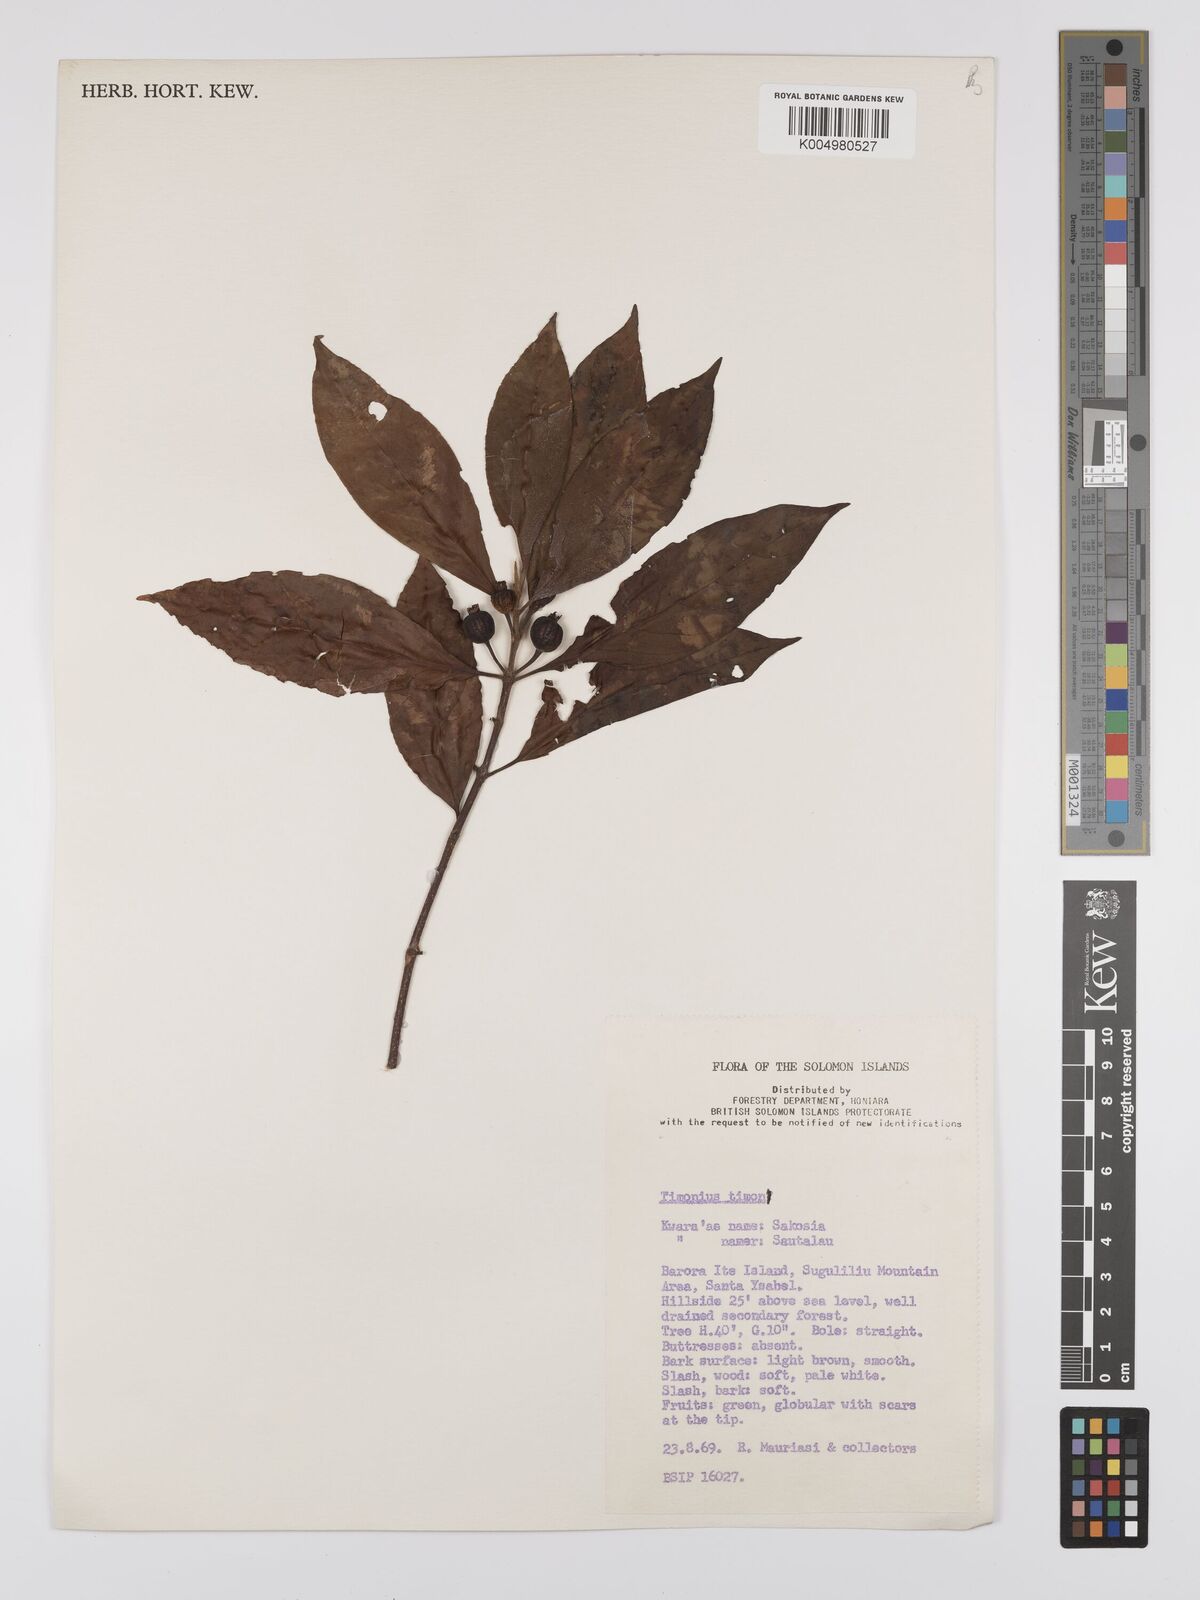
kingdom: Plantae
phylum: Tracheophyta
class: Magnoliopsida
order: Gentianales
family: Rubiaceae
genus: Timonius
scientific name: Timonius timon
